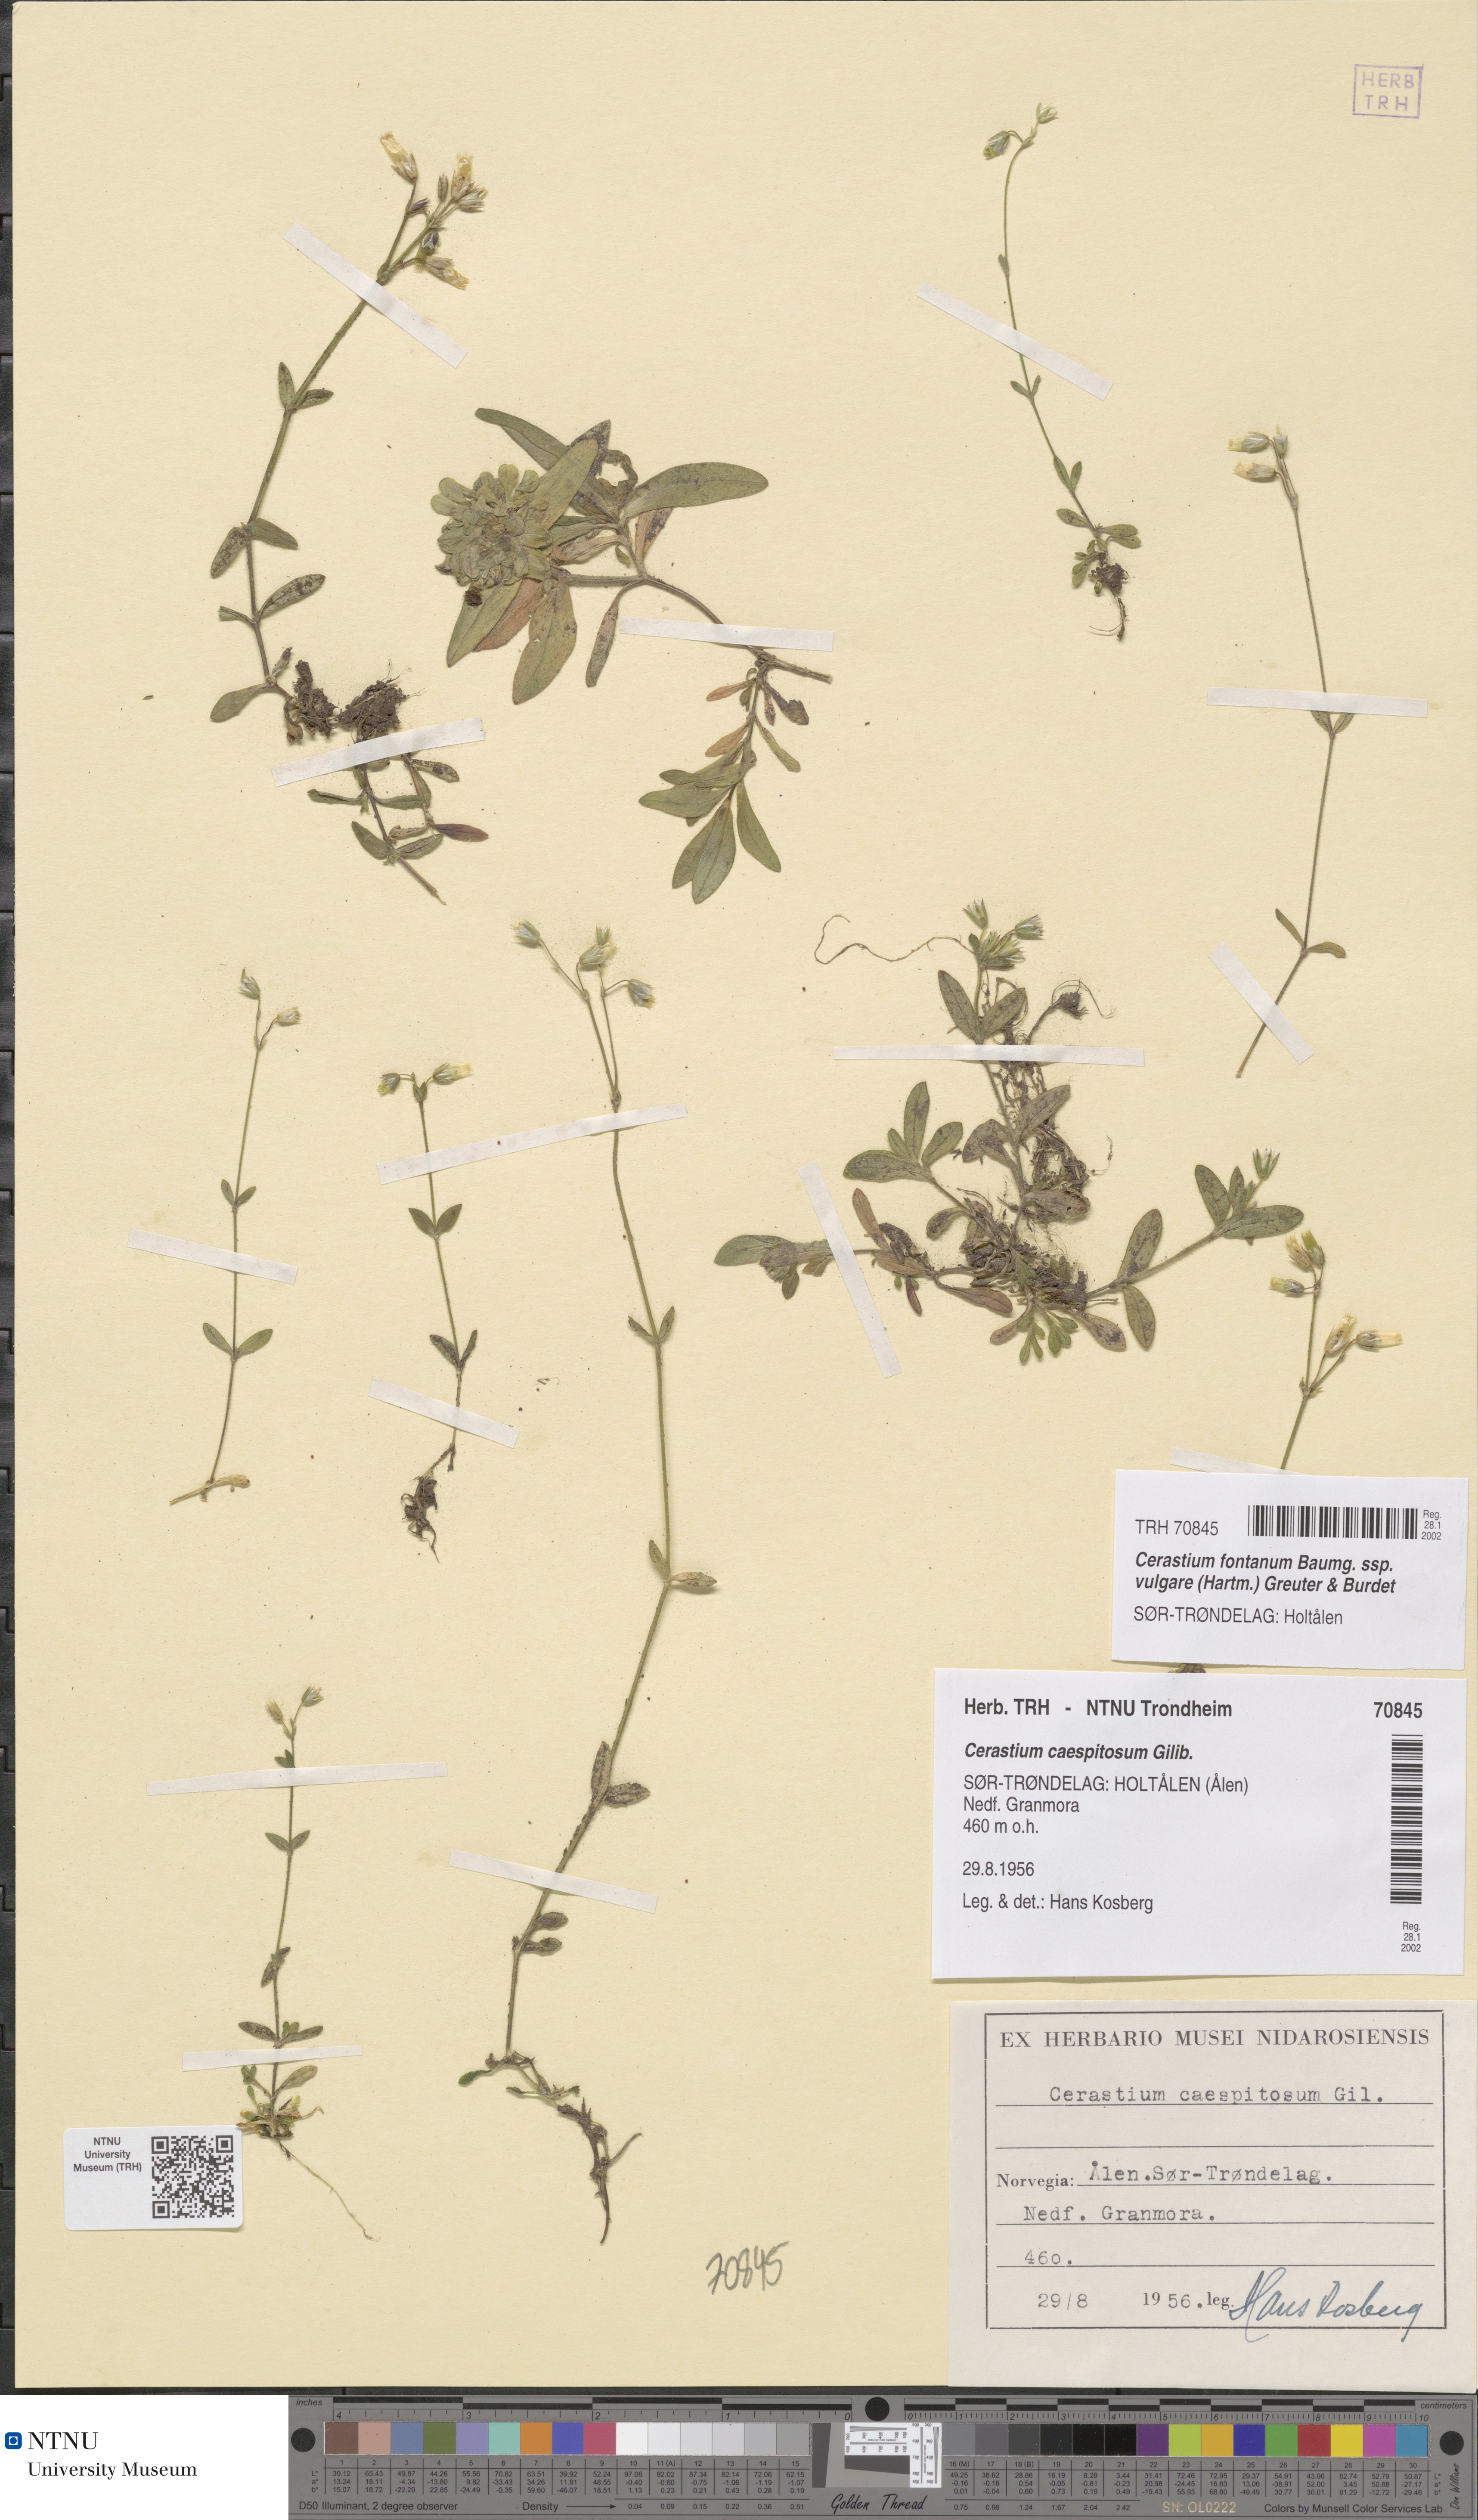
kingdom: Plantae
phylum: Tracheophyta
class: Magnoliopsida
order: Caryophyllales
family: Caryophyllaceae
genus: Cerastium
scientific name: Cerastium holosteoides
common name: Big chickweed
